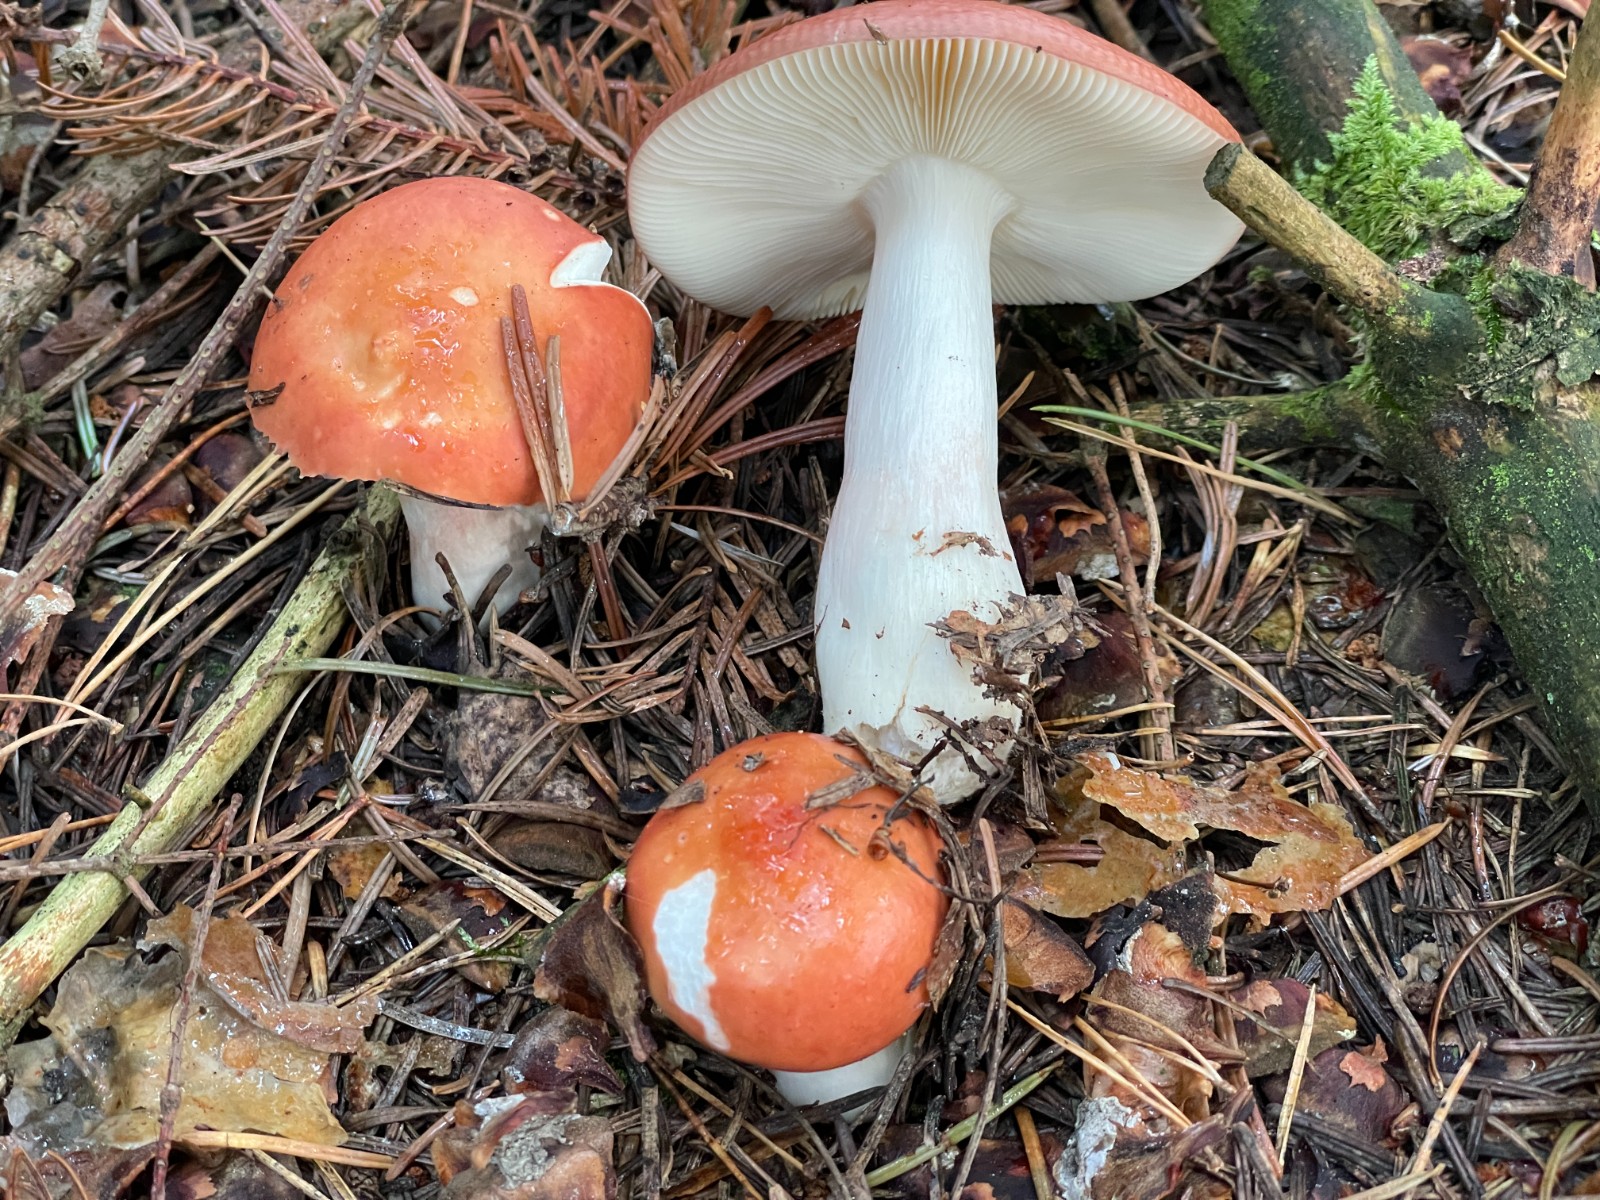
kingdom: Fungi
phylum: Basidiomycota
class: Agaricomycetes
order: Russulales
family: Russulaceae
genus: Russula
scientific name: Russula
